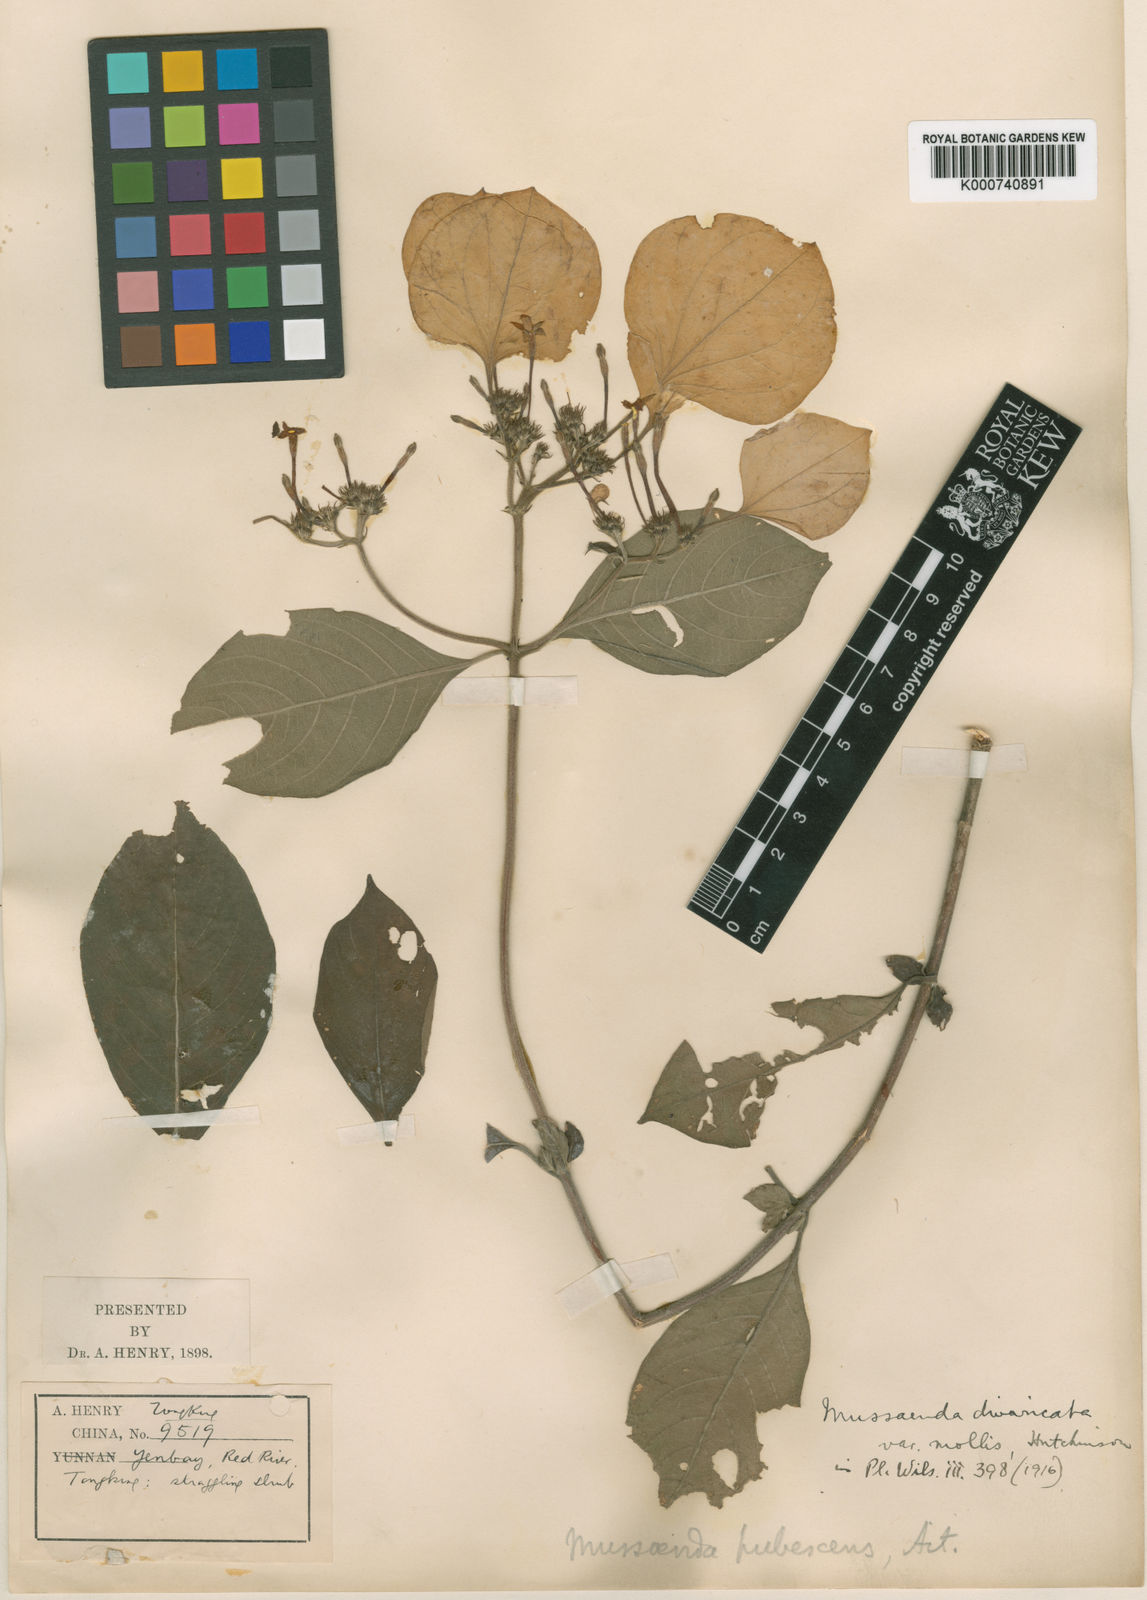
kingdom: Plantae
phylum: Tracheophyta
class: Magnoliopsida
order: Gentianales
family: Rubiaceae
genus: Mussaenda
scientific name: Mussaenda divaricata
